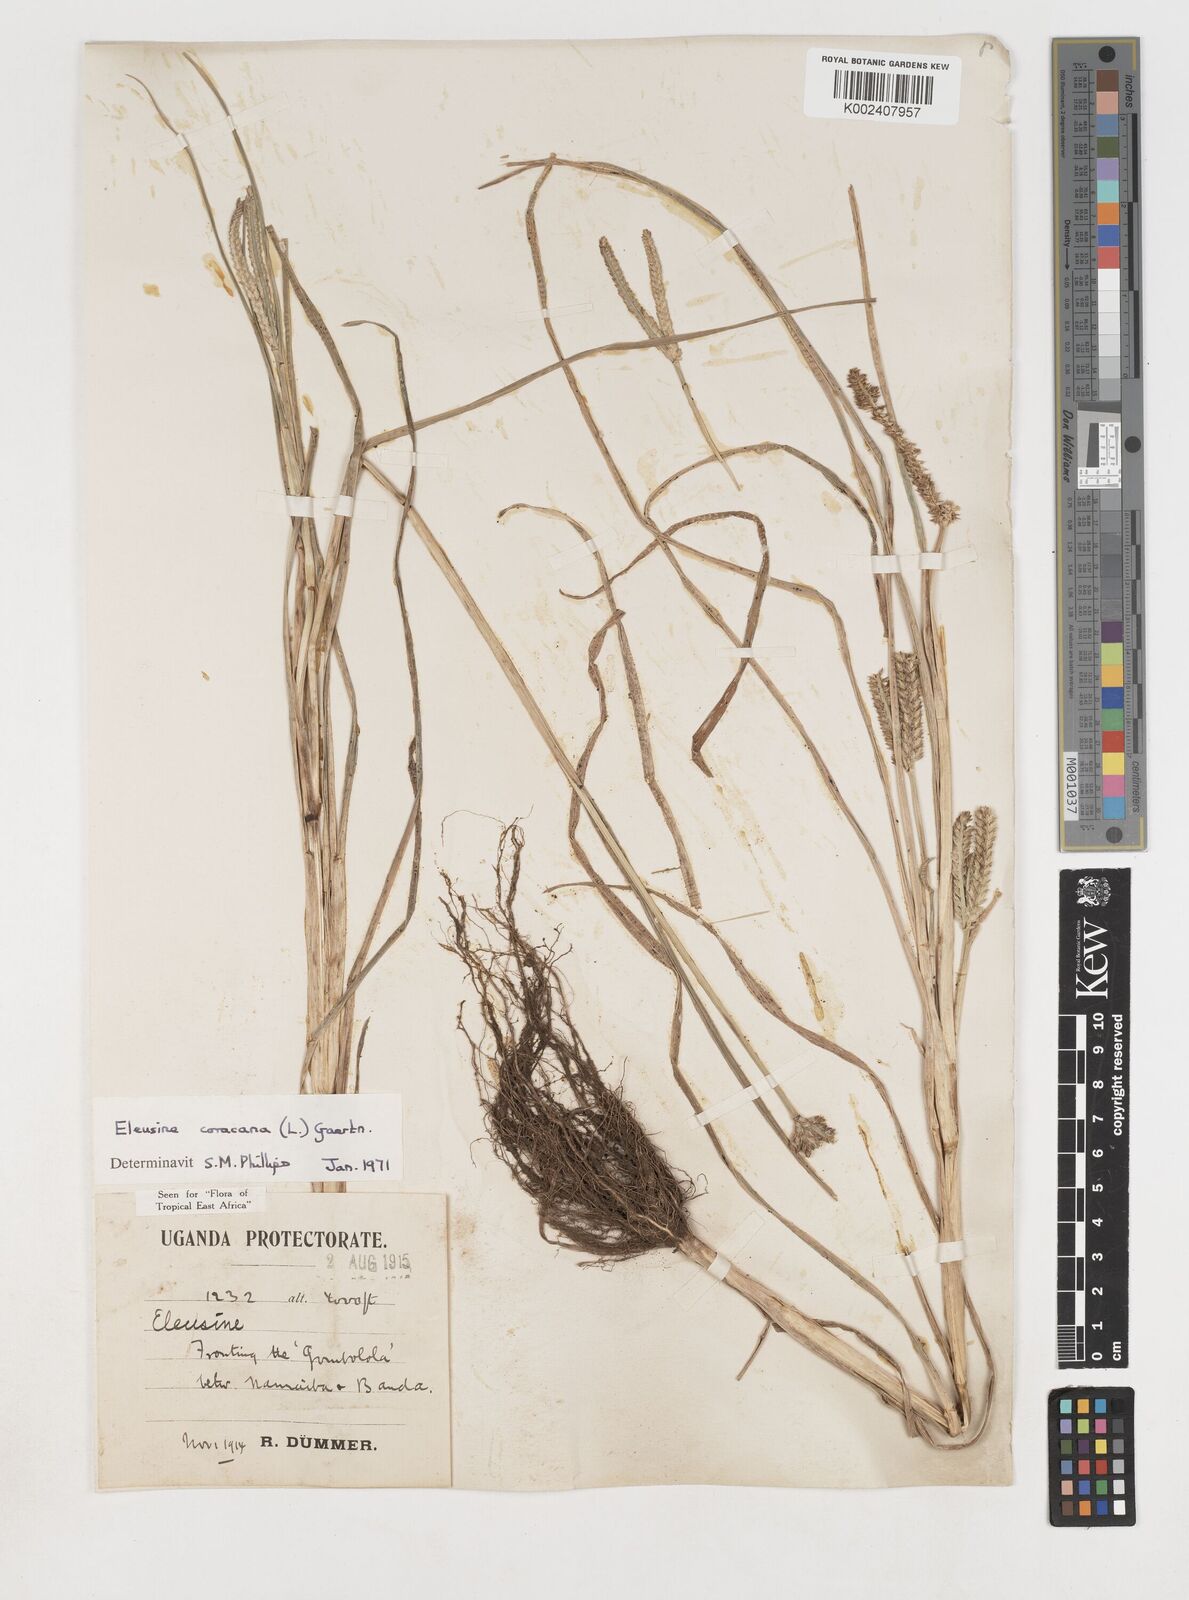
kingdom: Plantae
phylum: Tracheophyta
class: Liliopsida
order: Poales
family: Poaceae
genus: Eleusine
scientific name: Eleusine coracana
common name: Finger millet
